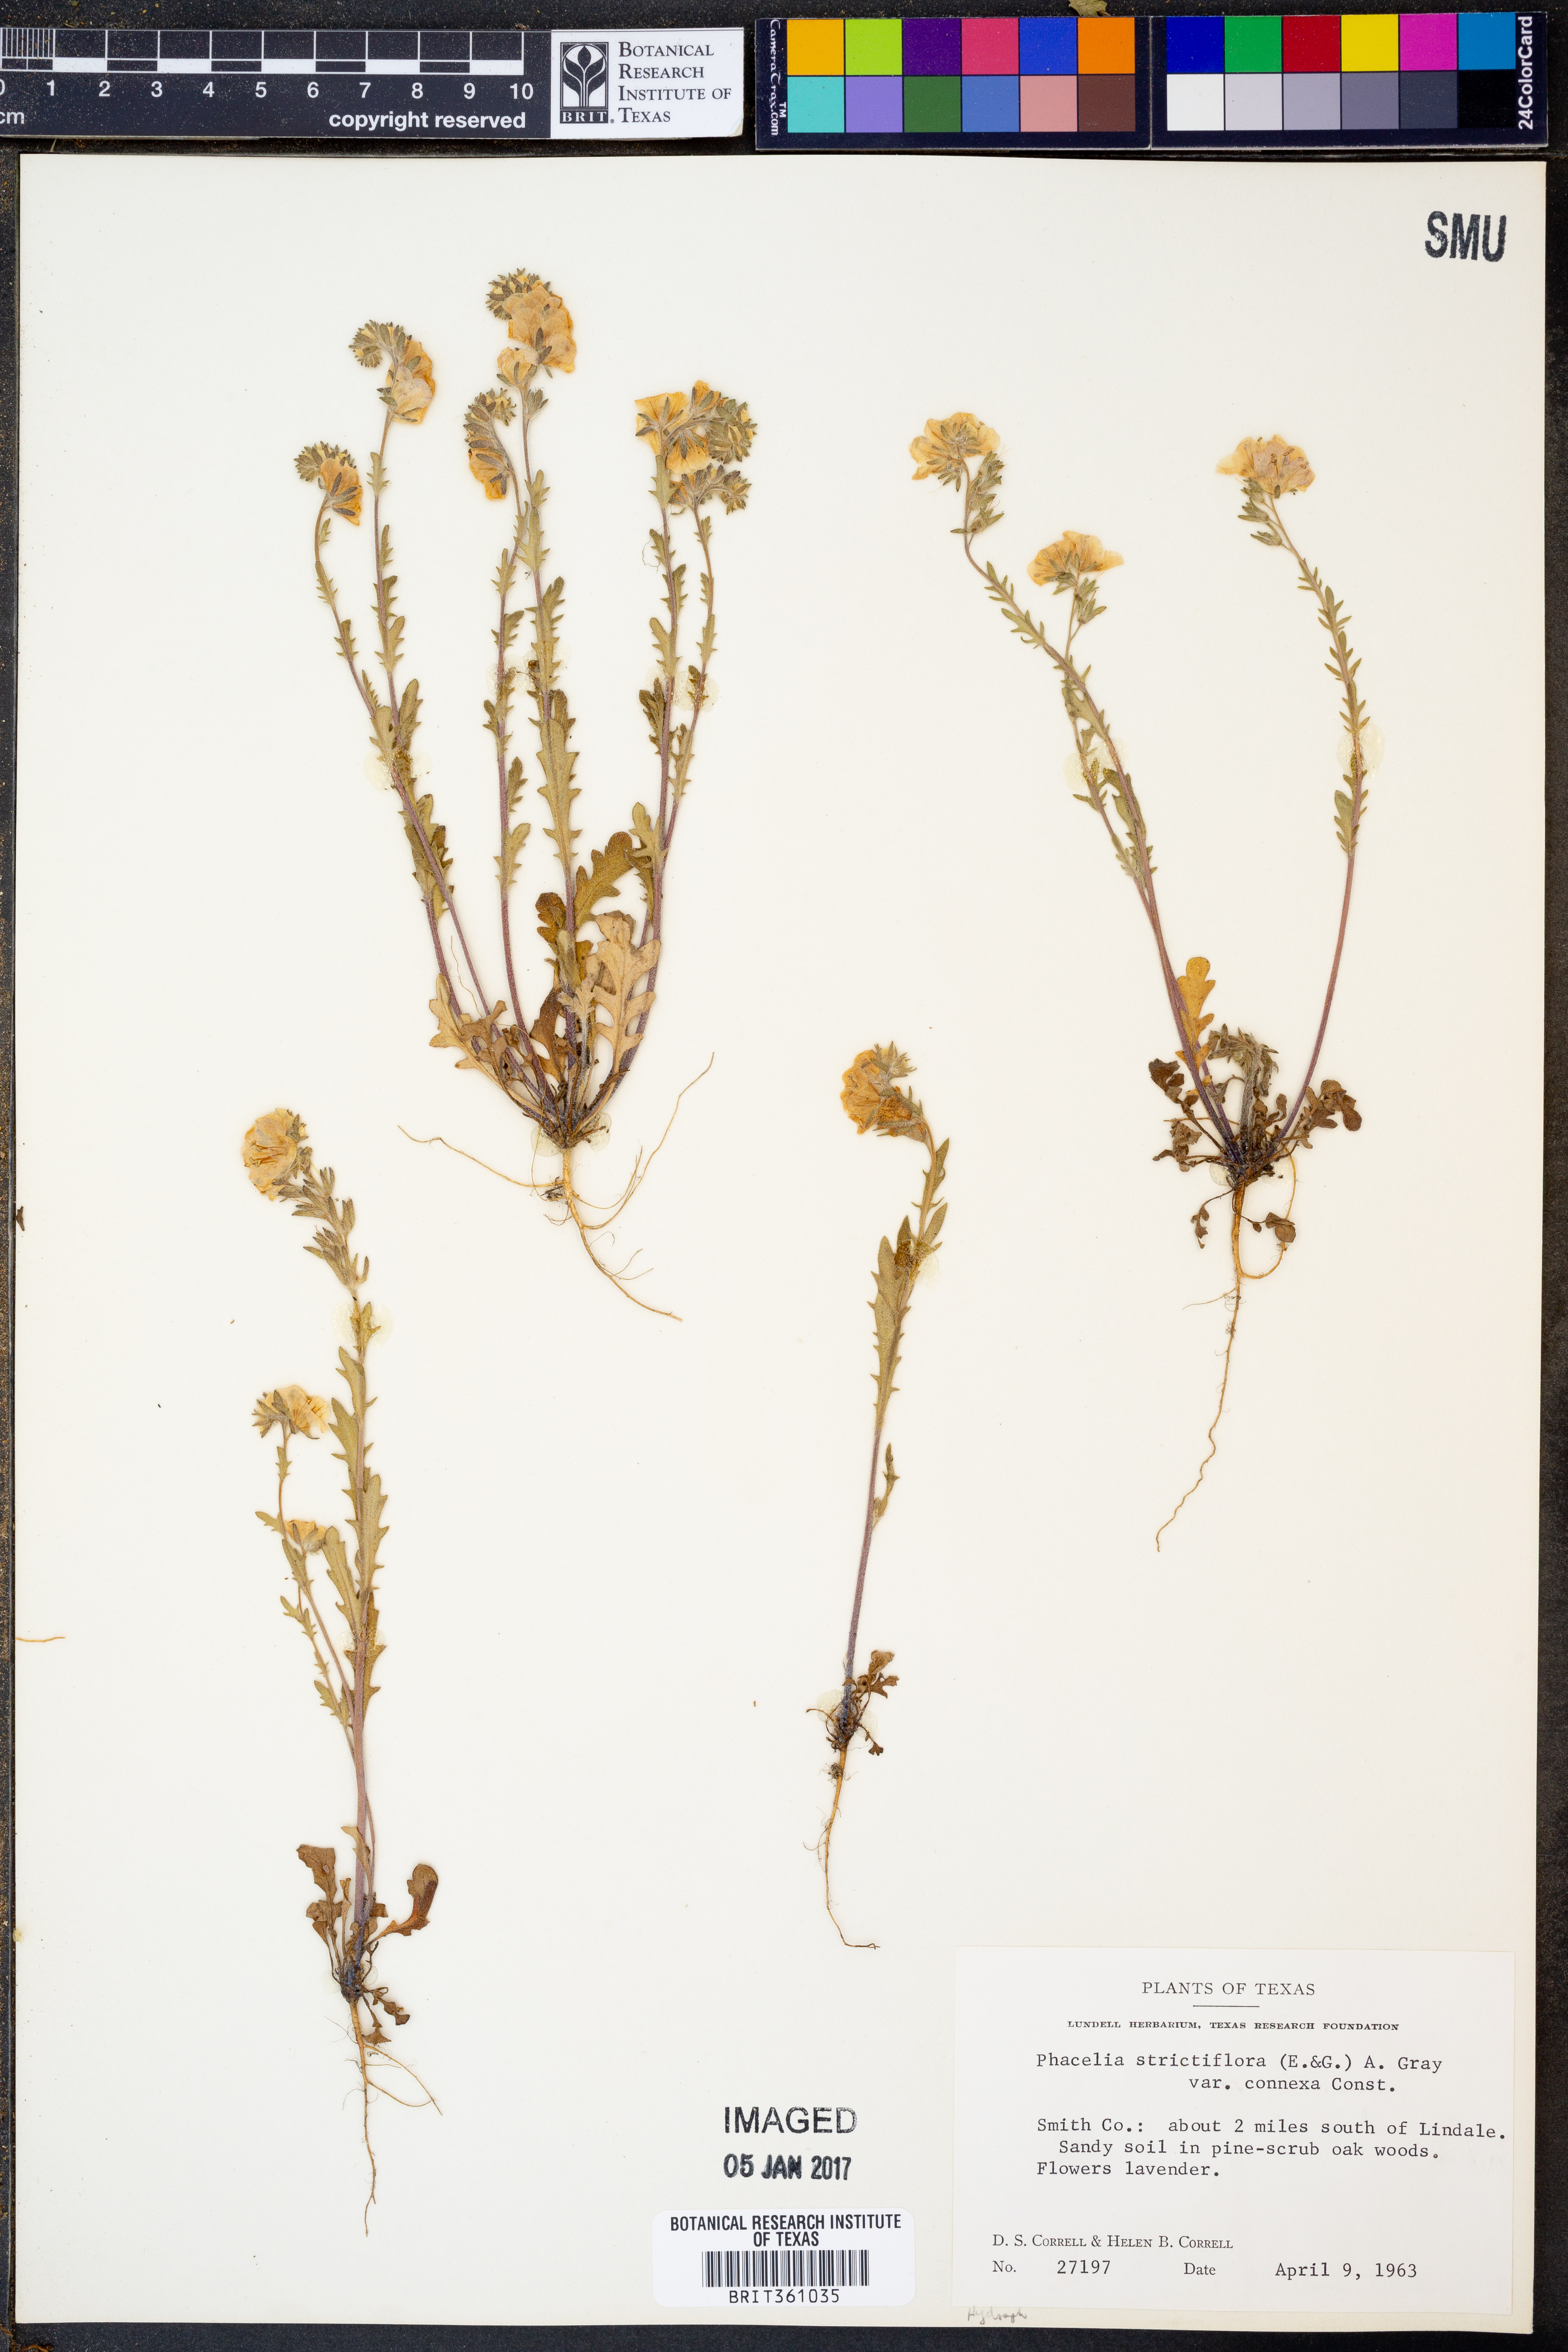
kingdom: Plantae
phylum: Tracheophyta
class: Magnoliopsida
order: Boraginales
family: Hydrophyllaceae
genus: Phacelia
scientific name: Phacelia strictiflora
